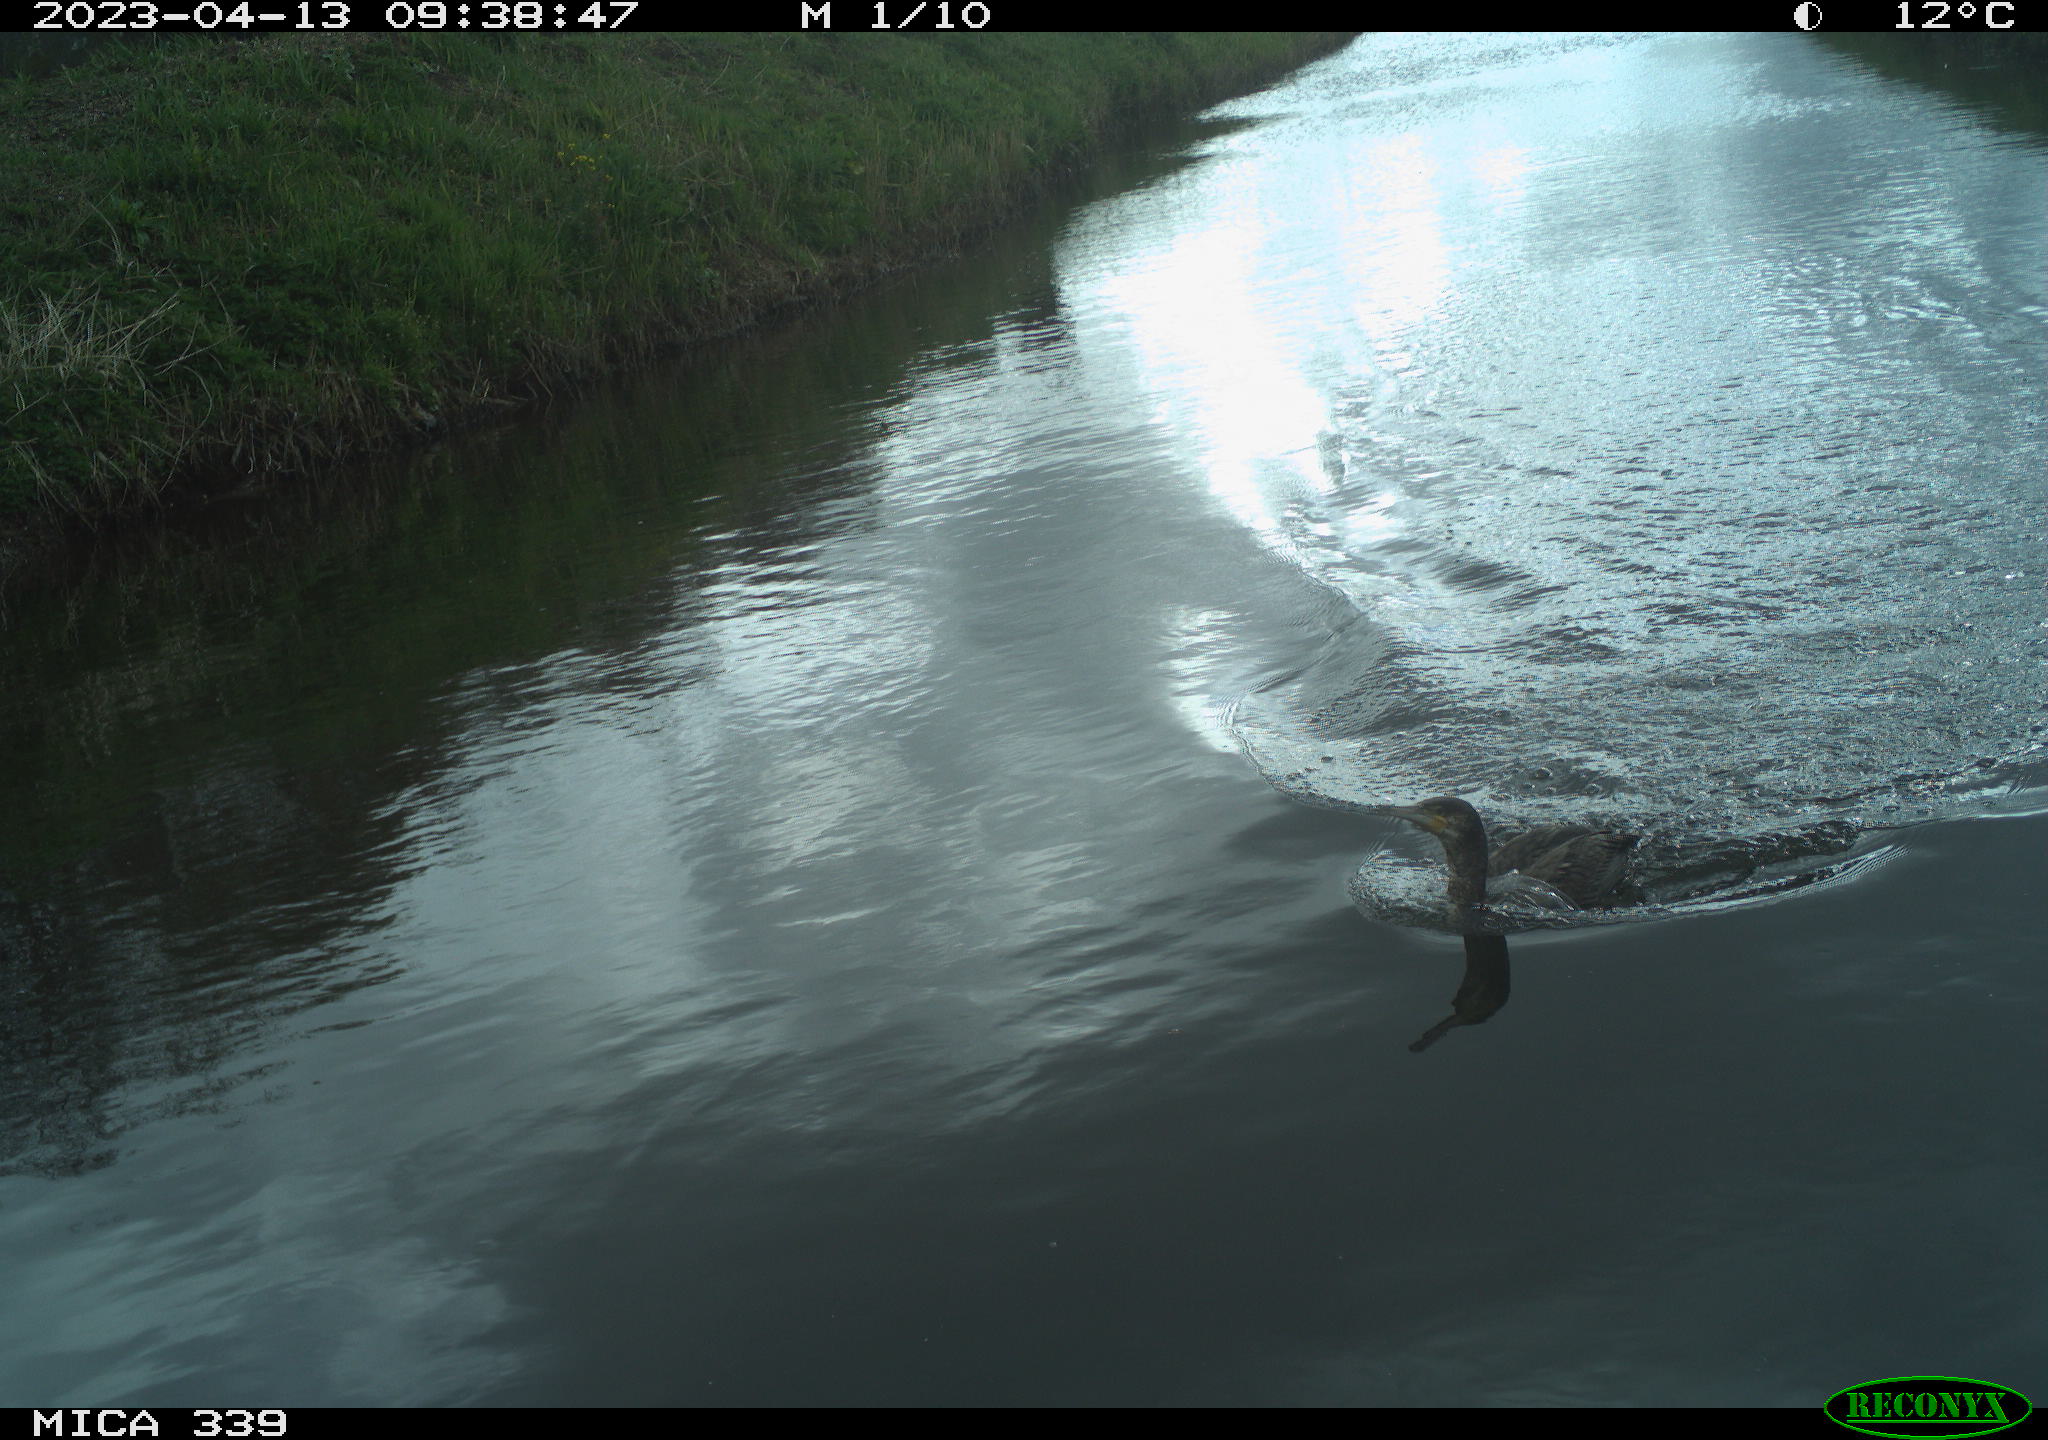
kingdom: Animalia
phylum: Chordata
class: Aves
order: Anseriformes
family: Anatidae
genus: Anas
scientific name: Anas
